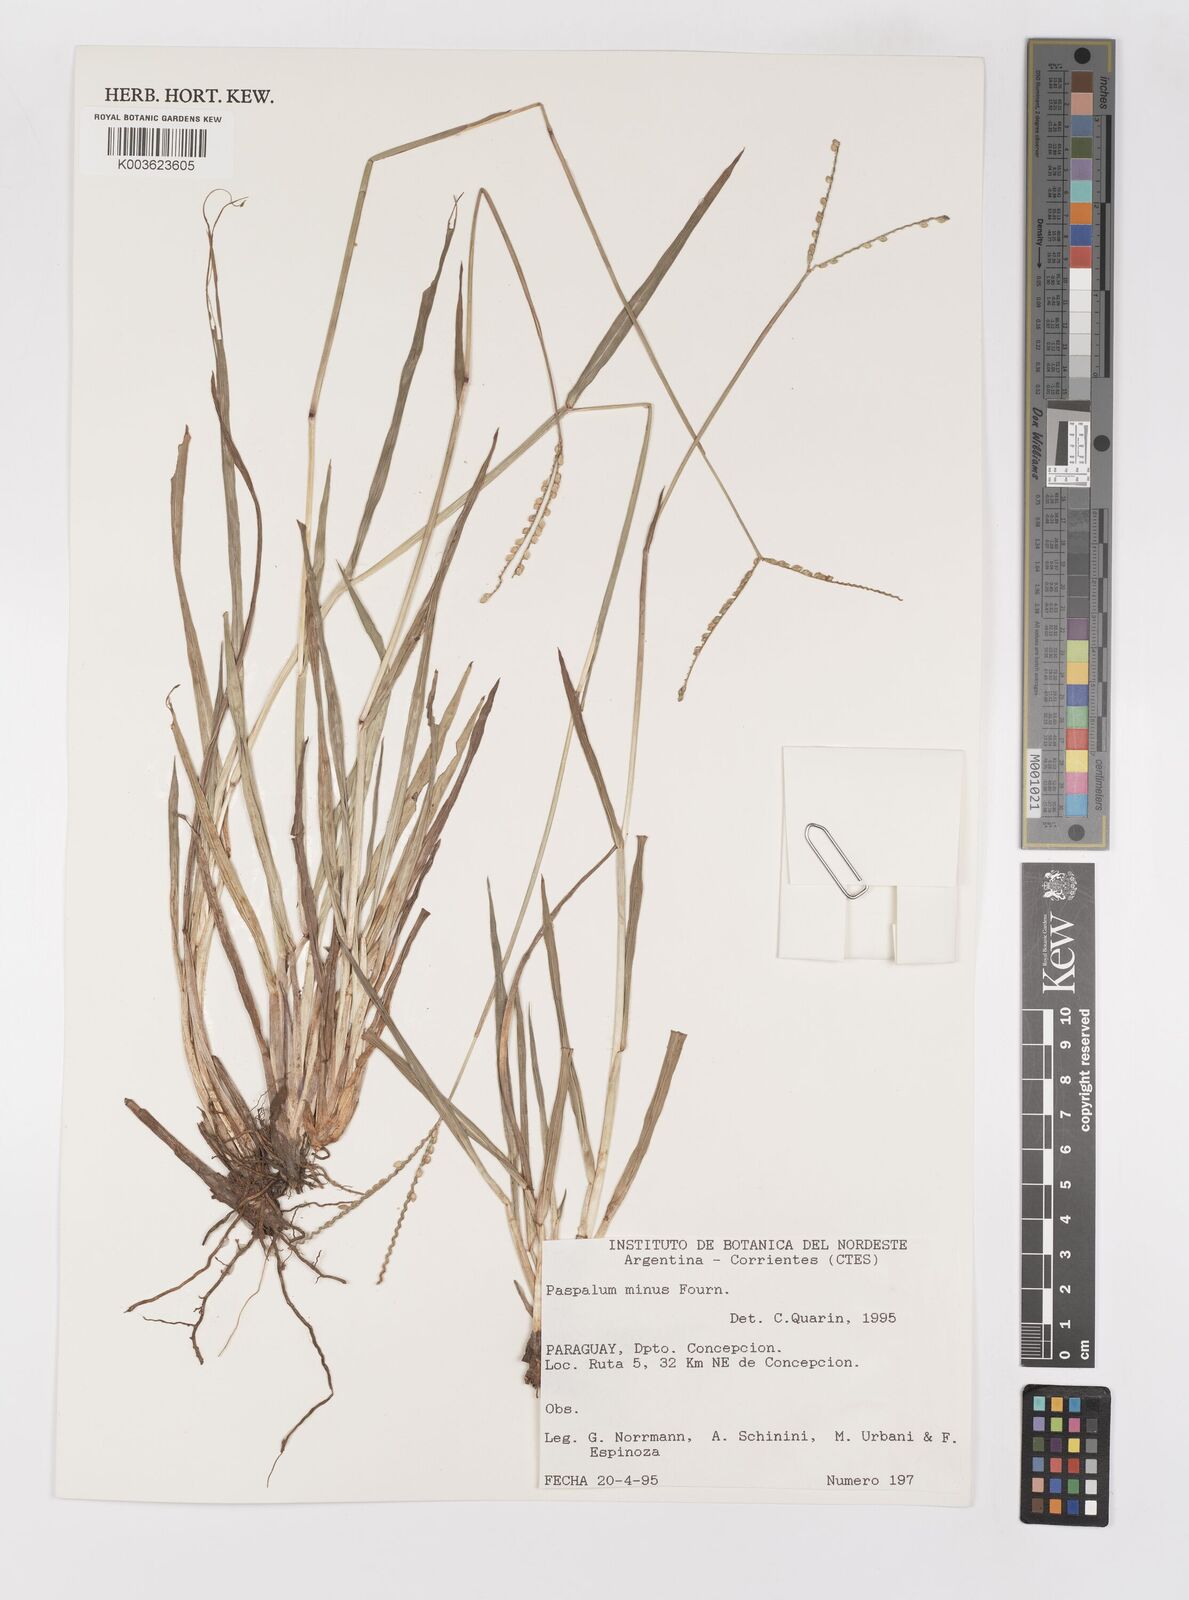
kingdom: Plantae
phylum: Tracheophyta
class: Liliopsida
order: Poales
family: Poaceae
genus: Paspalum
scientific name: Paspalum minus
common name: Matted paspalum
